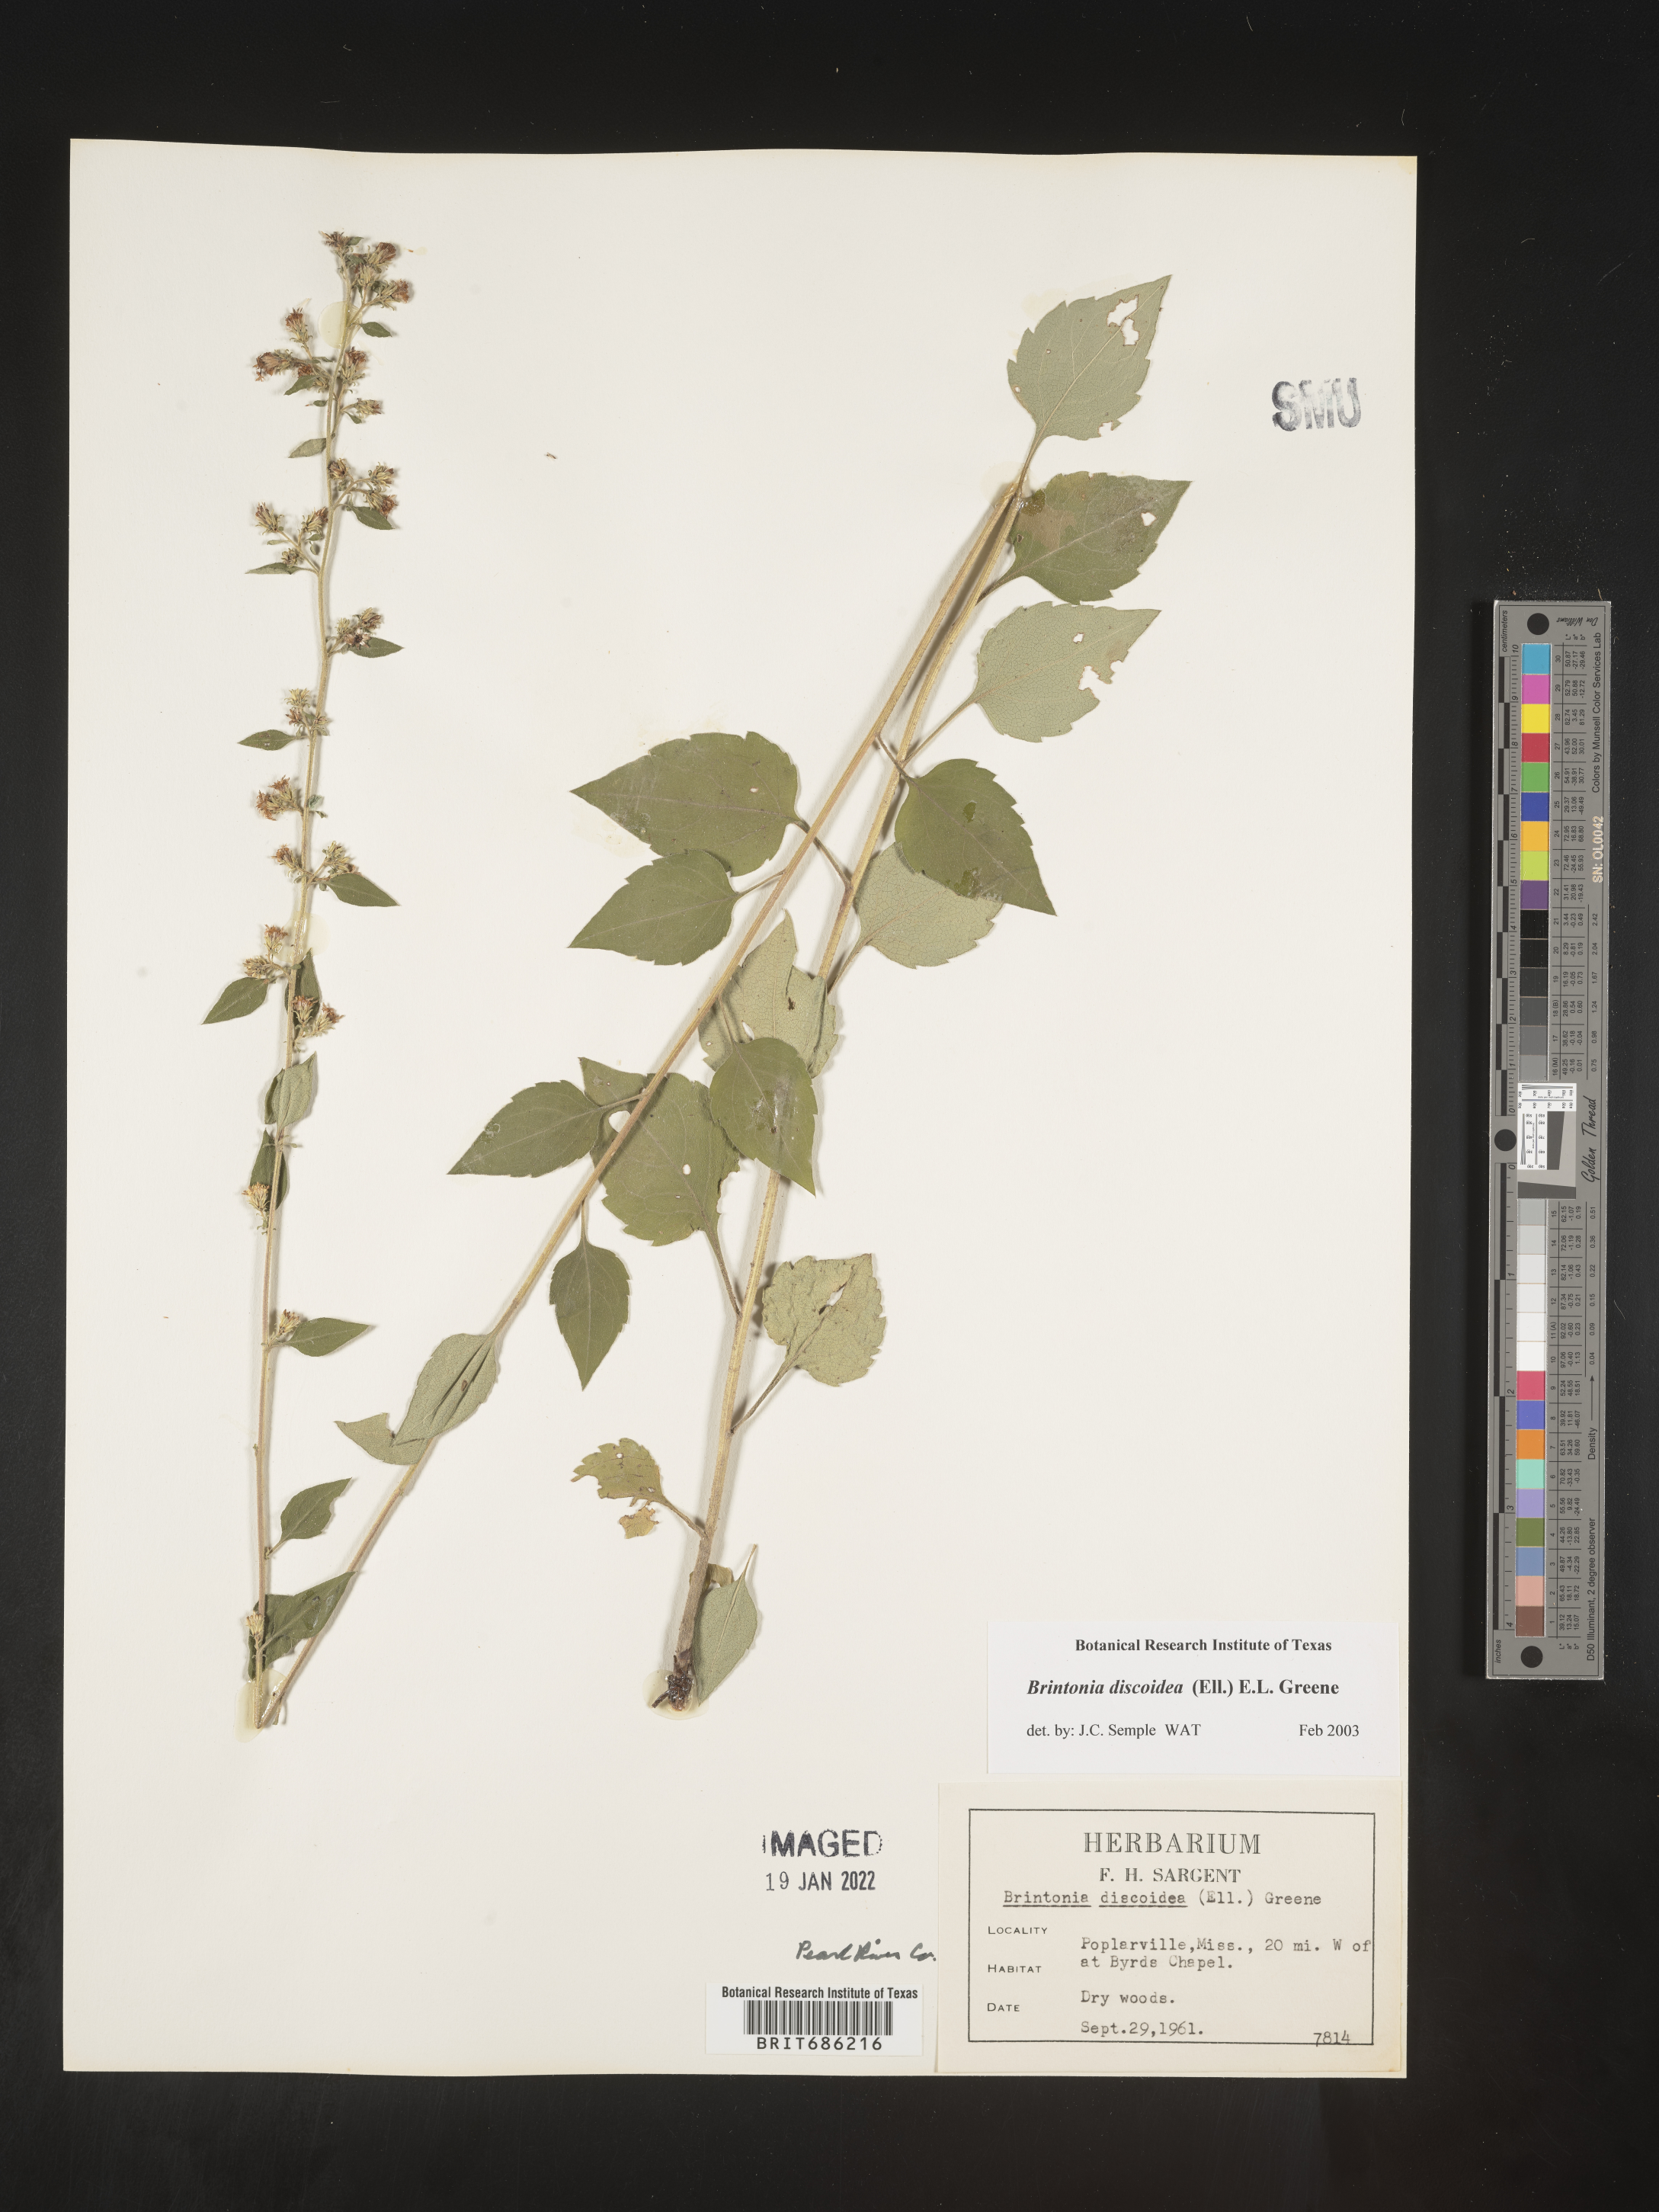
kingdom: Plantae
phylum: Tracheophyta
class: Magnoliopsida
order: Asterales
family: Asteraceae
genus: Solidago
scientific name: Solidago discoidea
